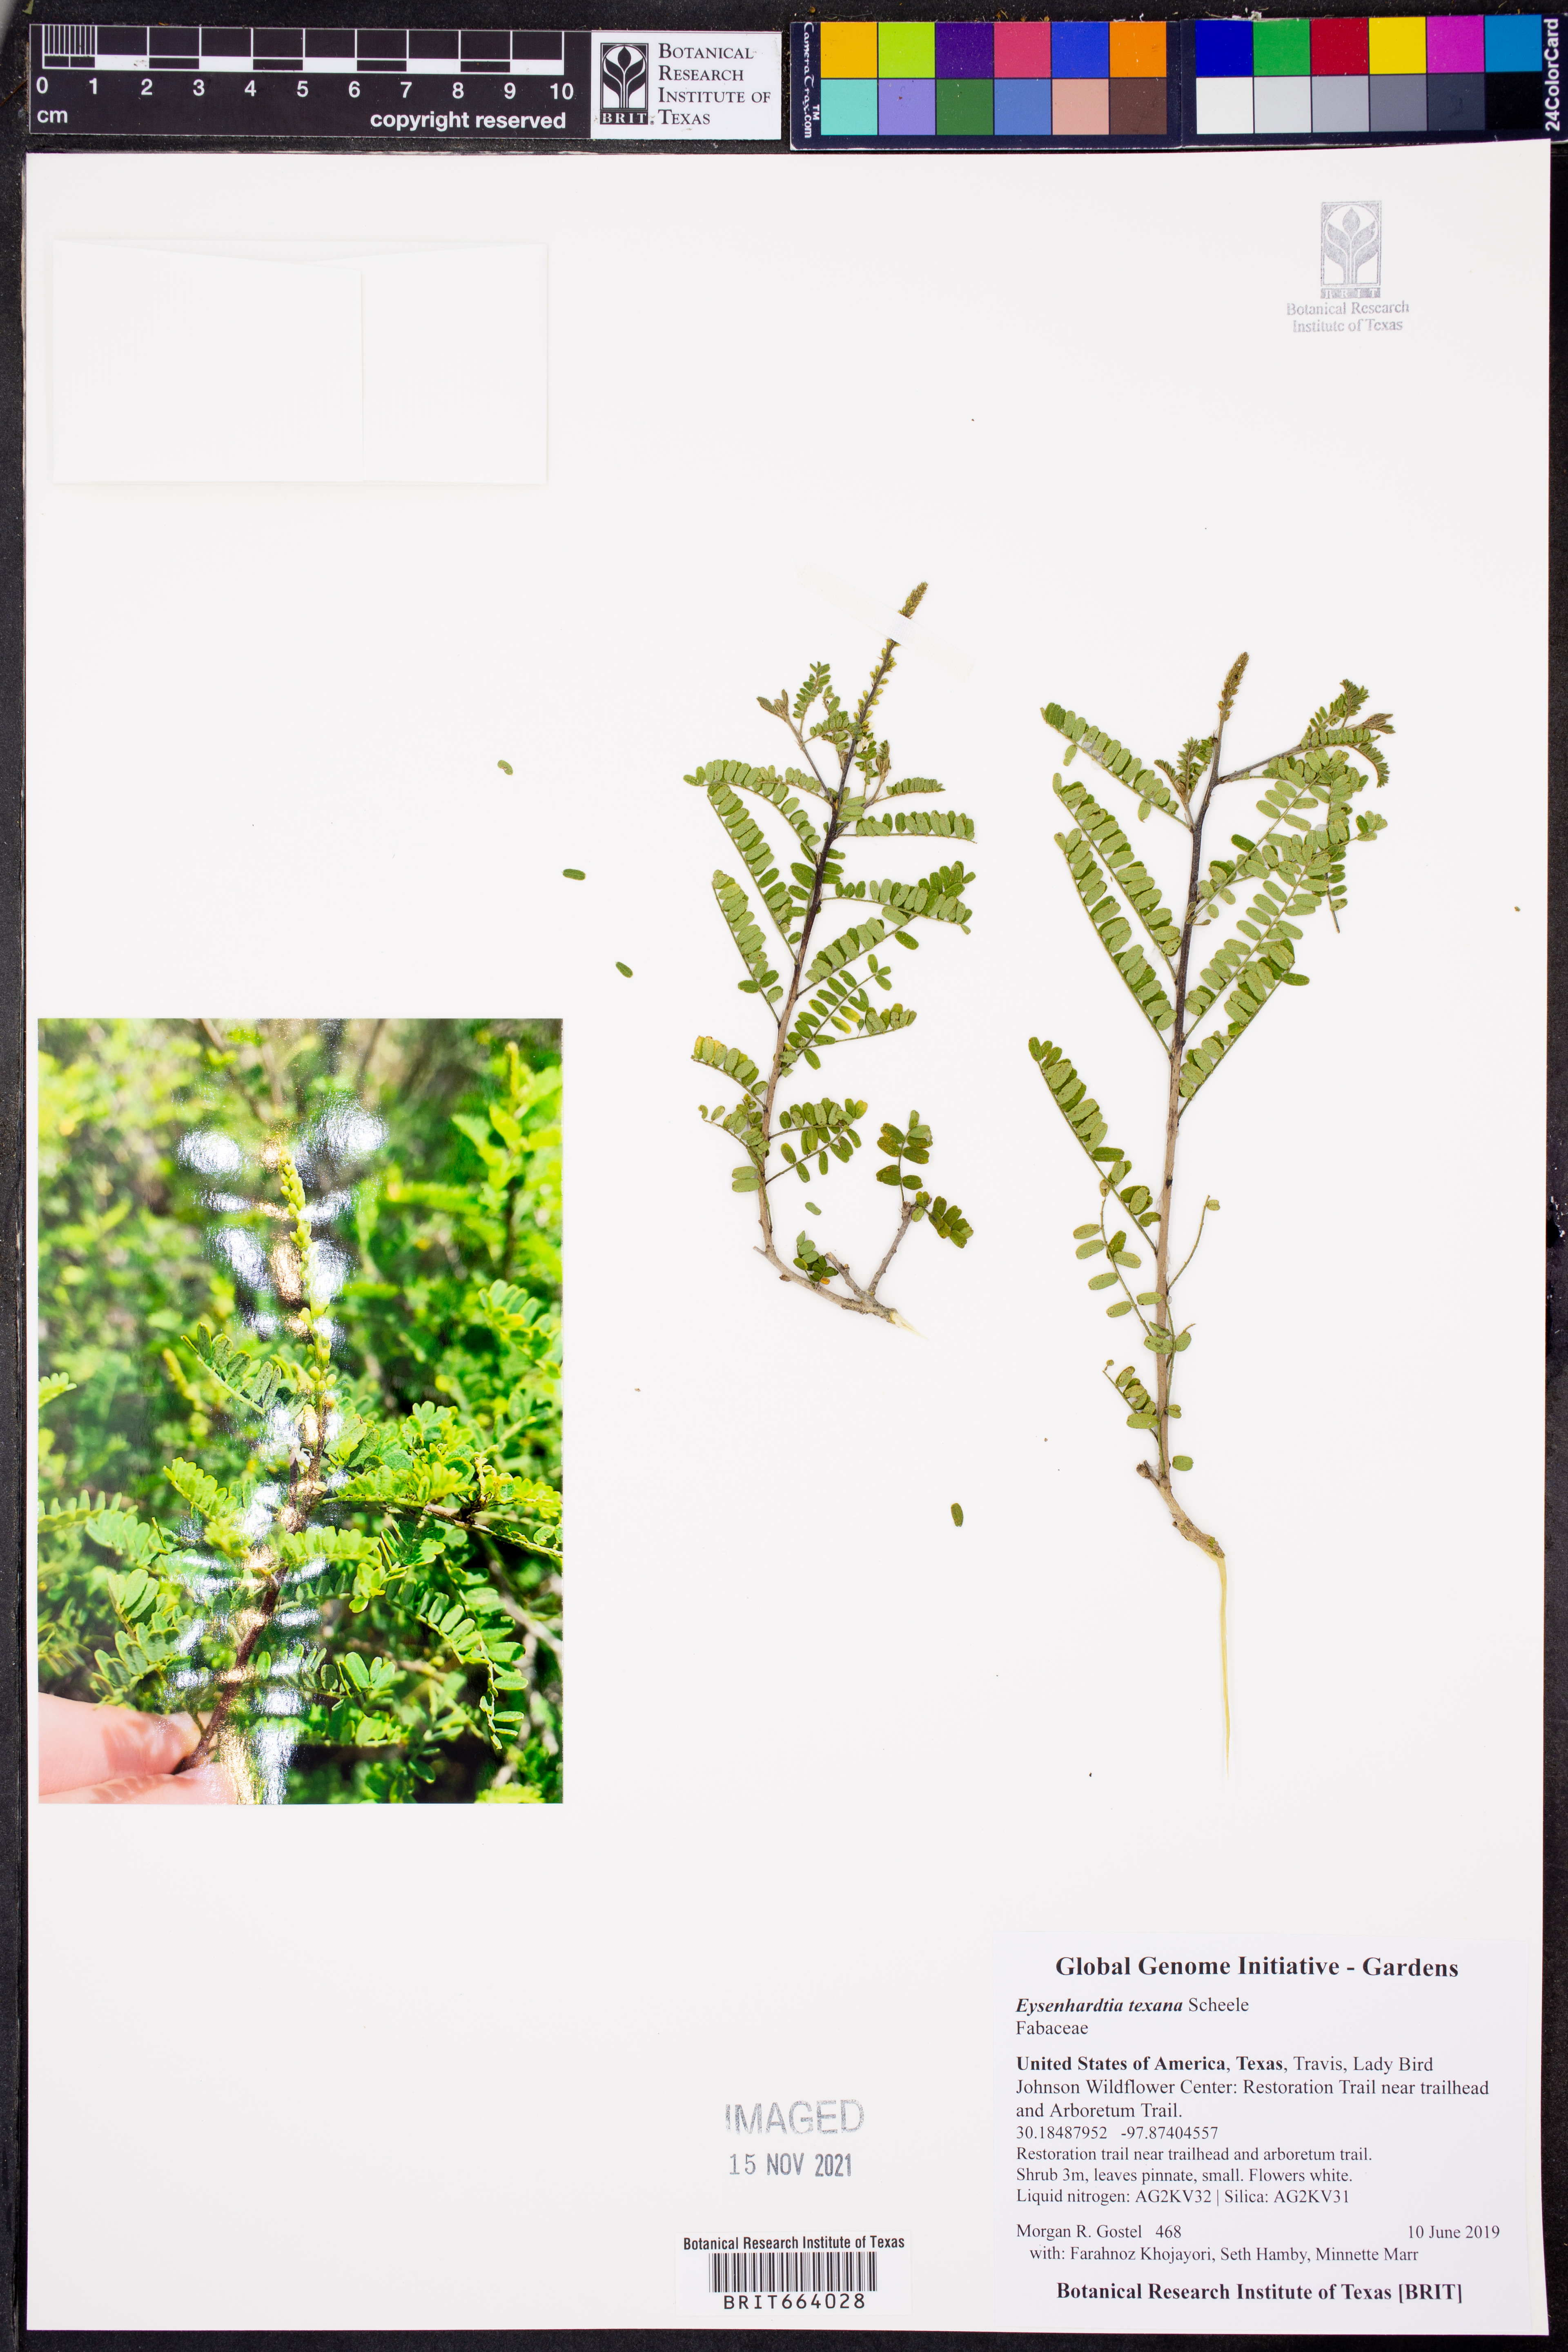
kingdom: Plantae
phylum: Tracheophyta
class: Magnoliopsida
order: Fabales
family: Fabaceae
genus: Eysenhardtia
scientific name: Eysenhardtia texana
